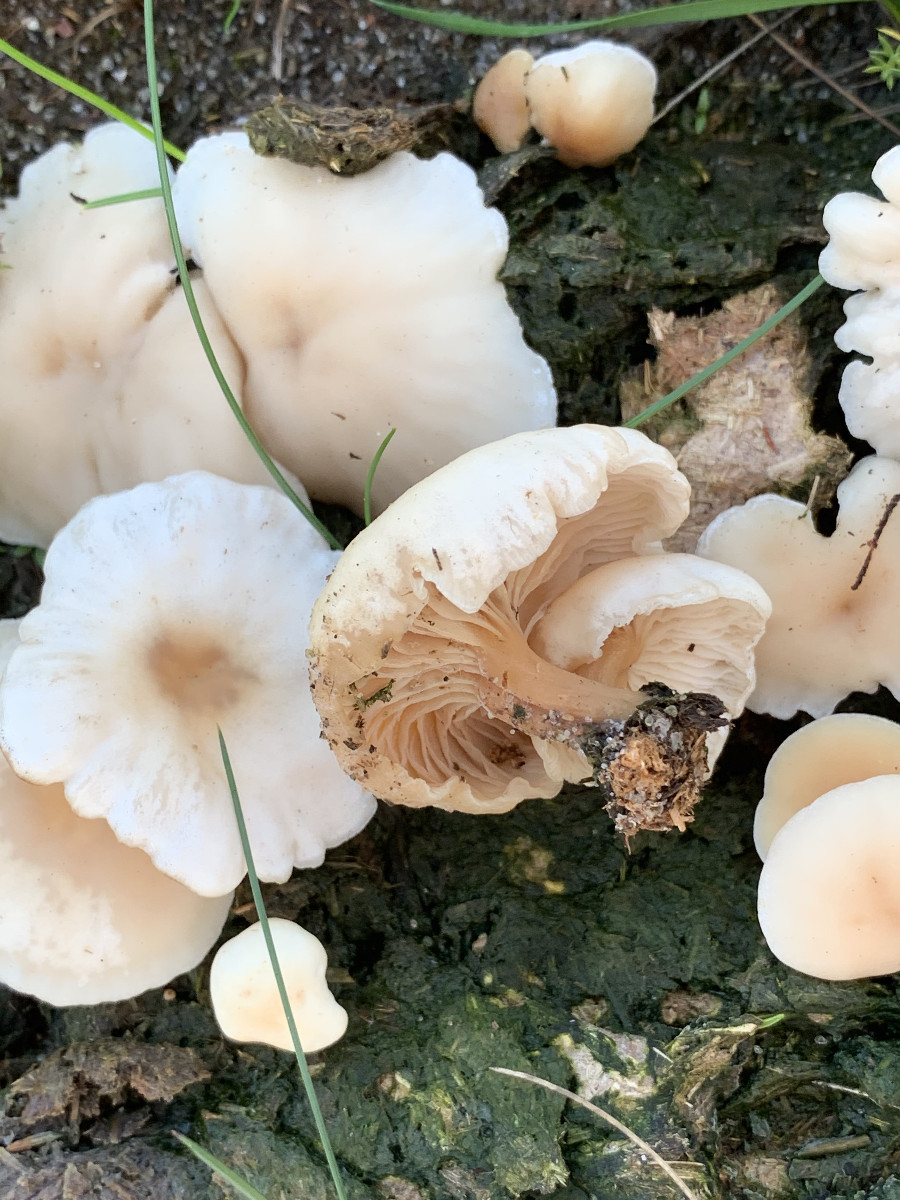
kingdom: Fungi
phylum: Basidiomycota
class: Agaricomycetes
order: Agaricales
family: Tricholomataceae
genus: Clitocybe
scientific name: Clitocybe rivulosa
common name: eng-tragthat
